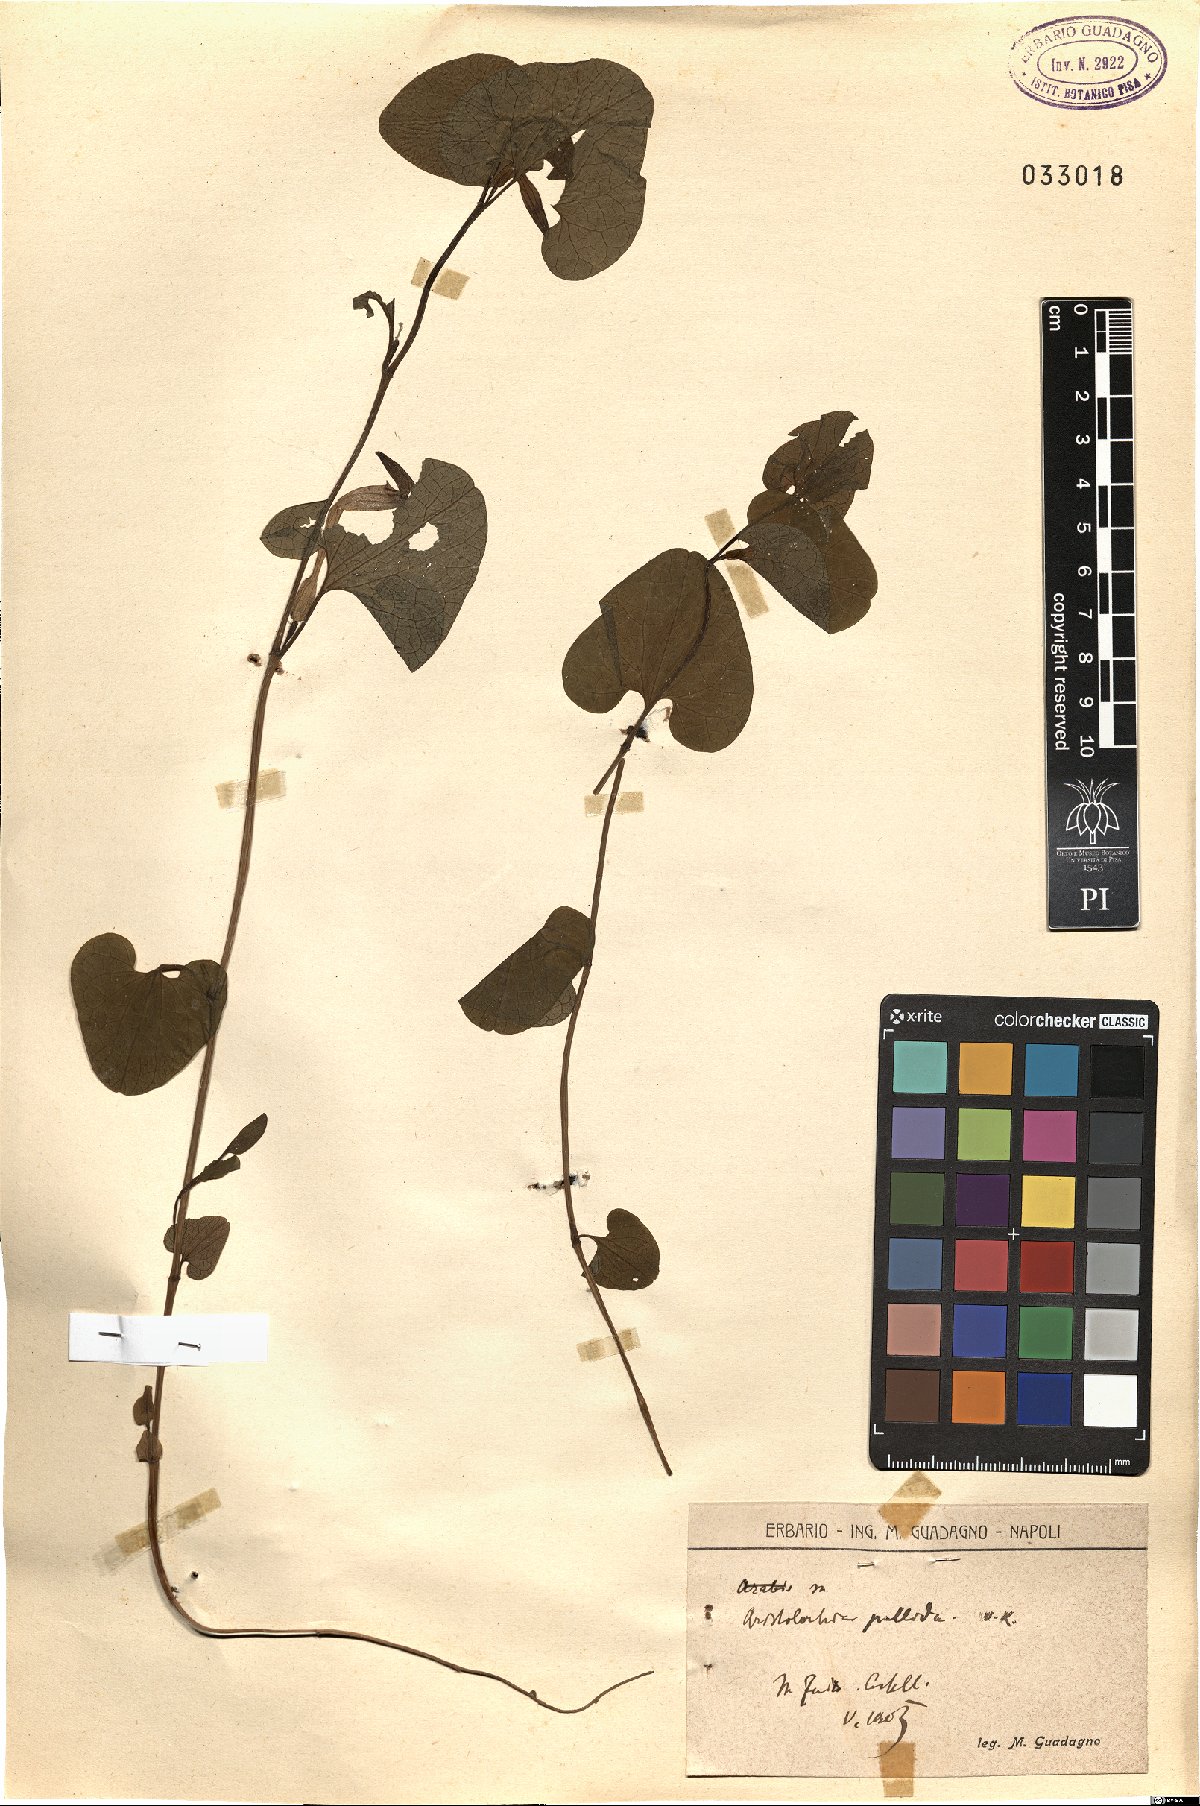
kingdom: Plantae
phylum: Tracheophyta
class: Magnoliopsida
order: Piperales
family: Aristolochiaceae
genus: Aristolochia
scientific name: Aristolochia pallida
